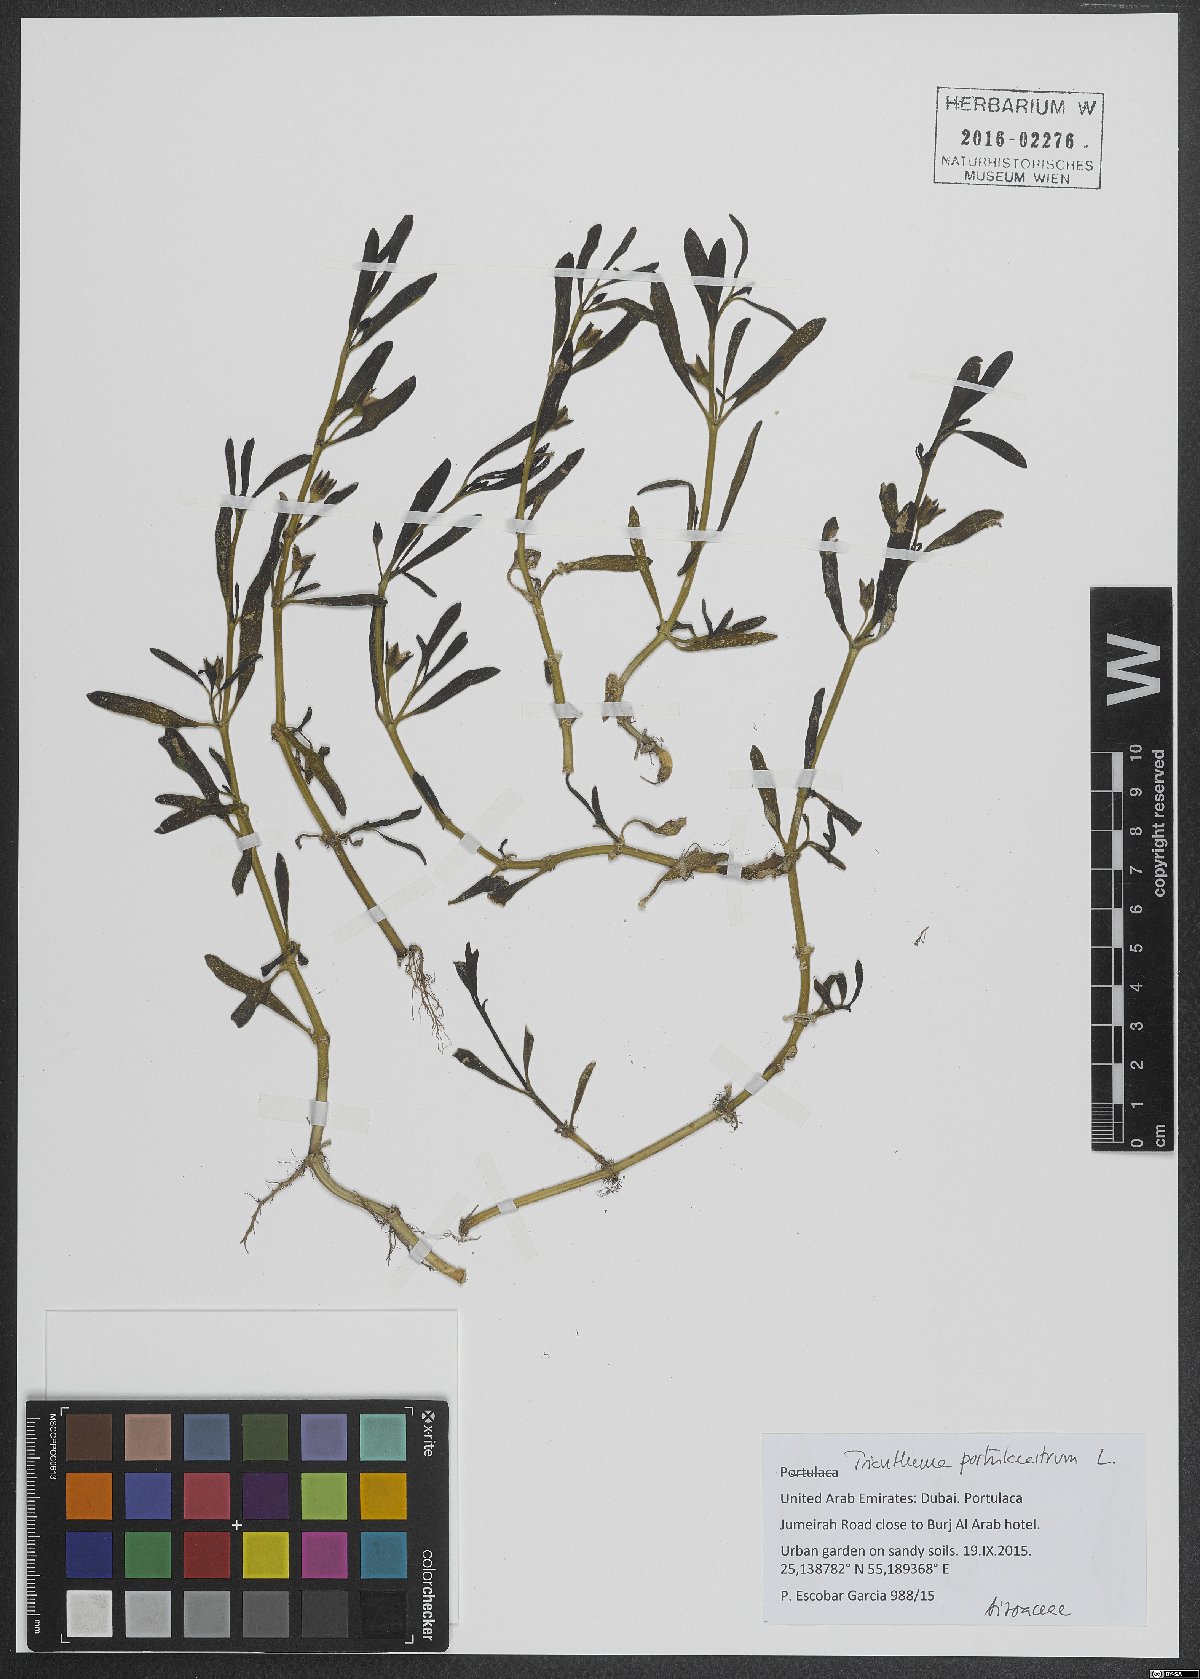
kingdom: Plantae
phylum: Tracheophyta
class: Magnoliopsida
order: Caryophyllales
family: Aizoaceae
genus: Sesuvium
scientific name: Sesuvium portulacastrum
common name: Sea-purslane
